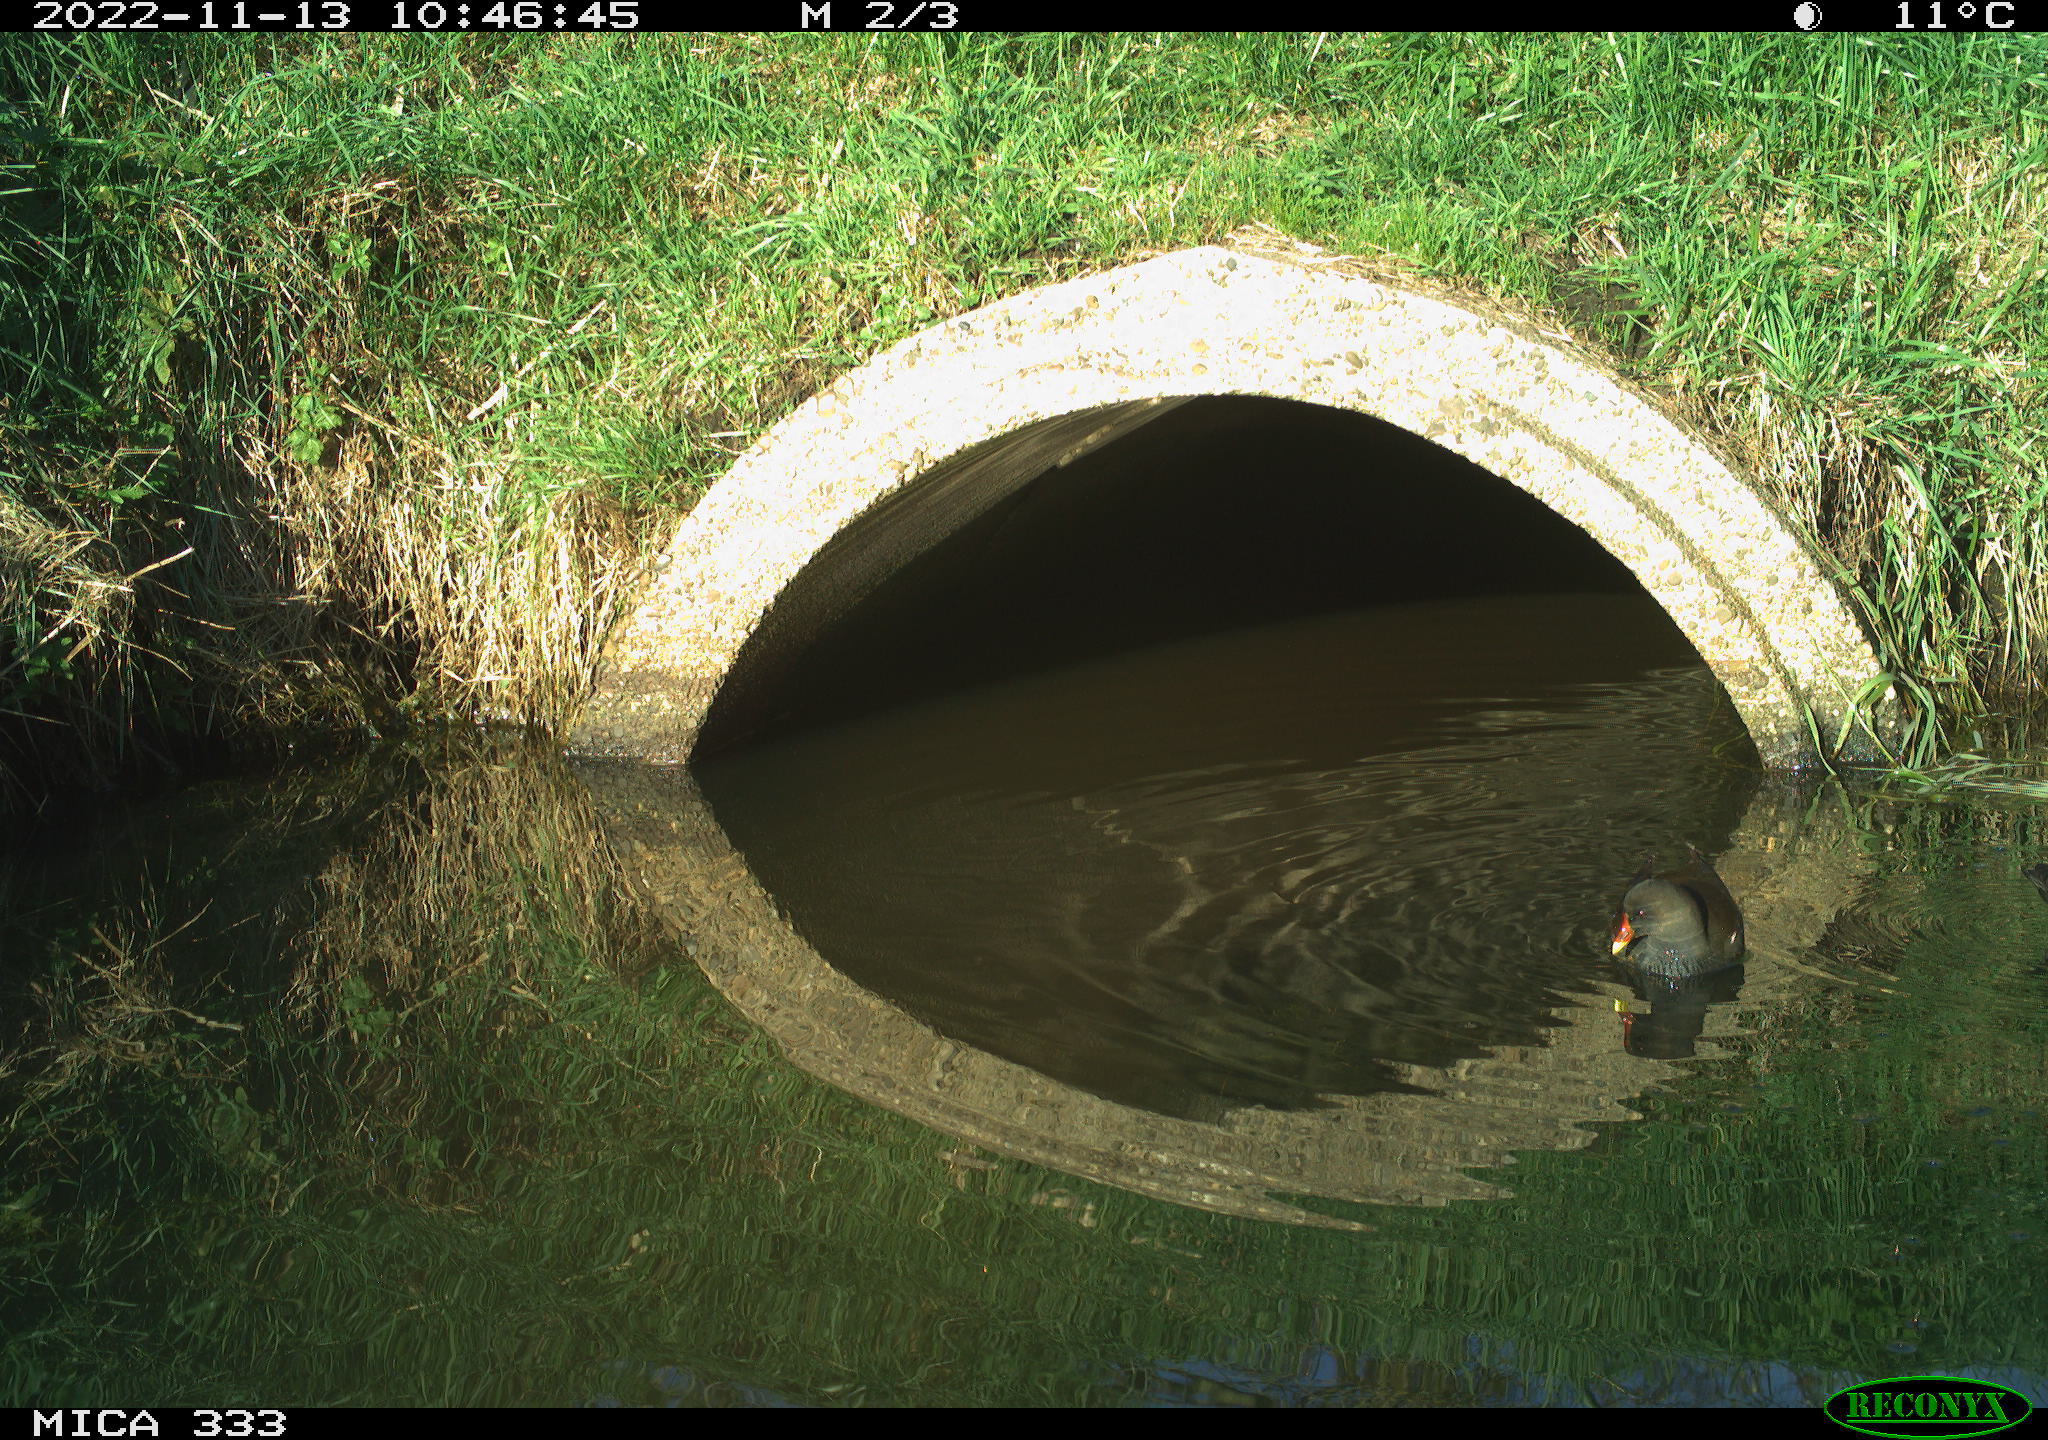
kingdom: Animalia
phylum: Chordata
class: Aves
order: Gruiformes
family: Rallidae
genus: Gallinula
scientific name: Gallinula chloropus
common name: Common moorhen
